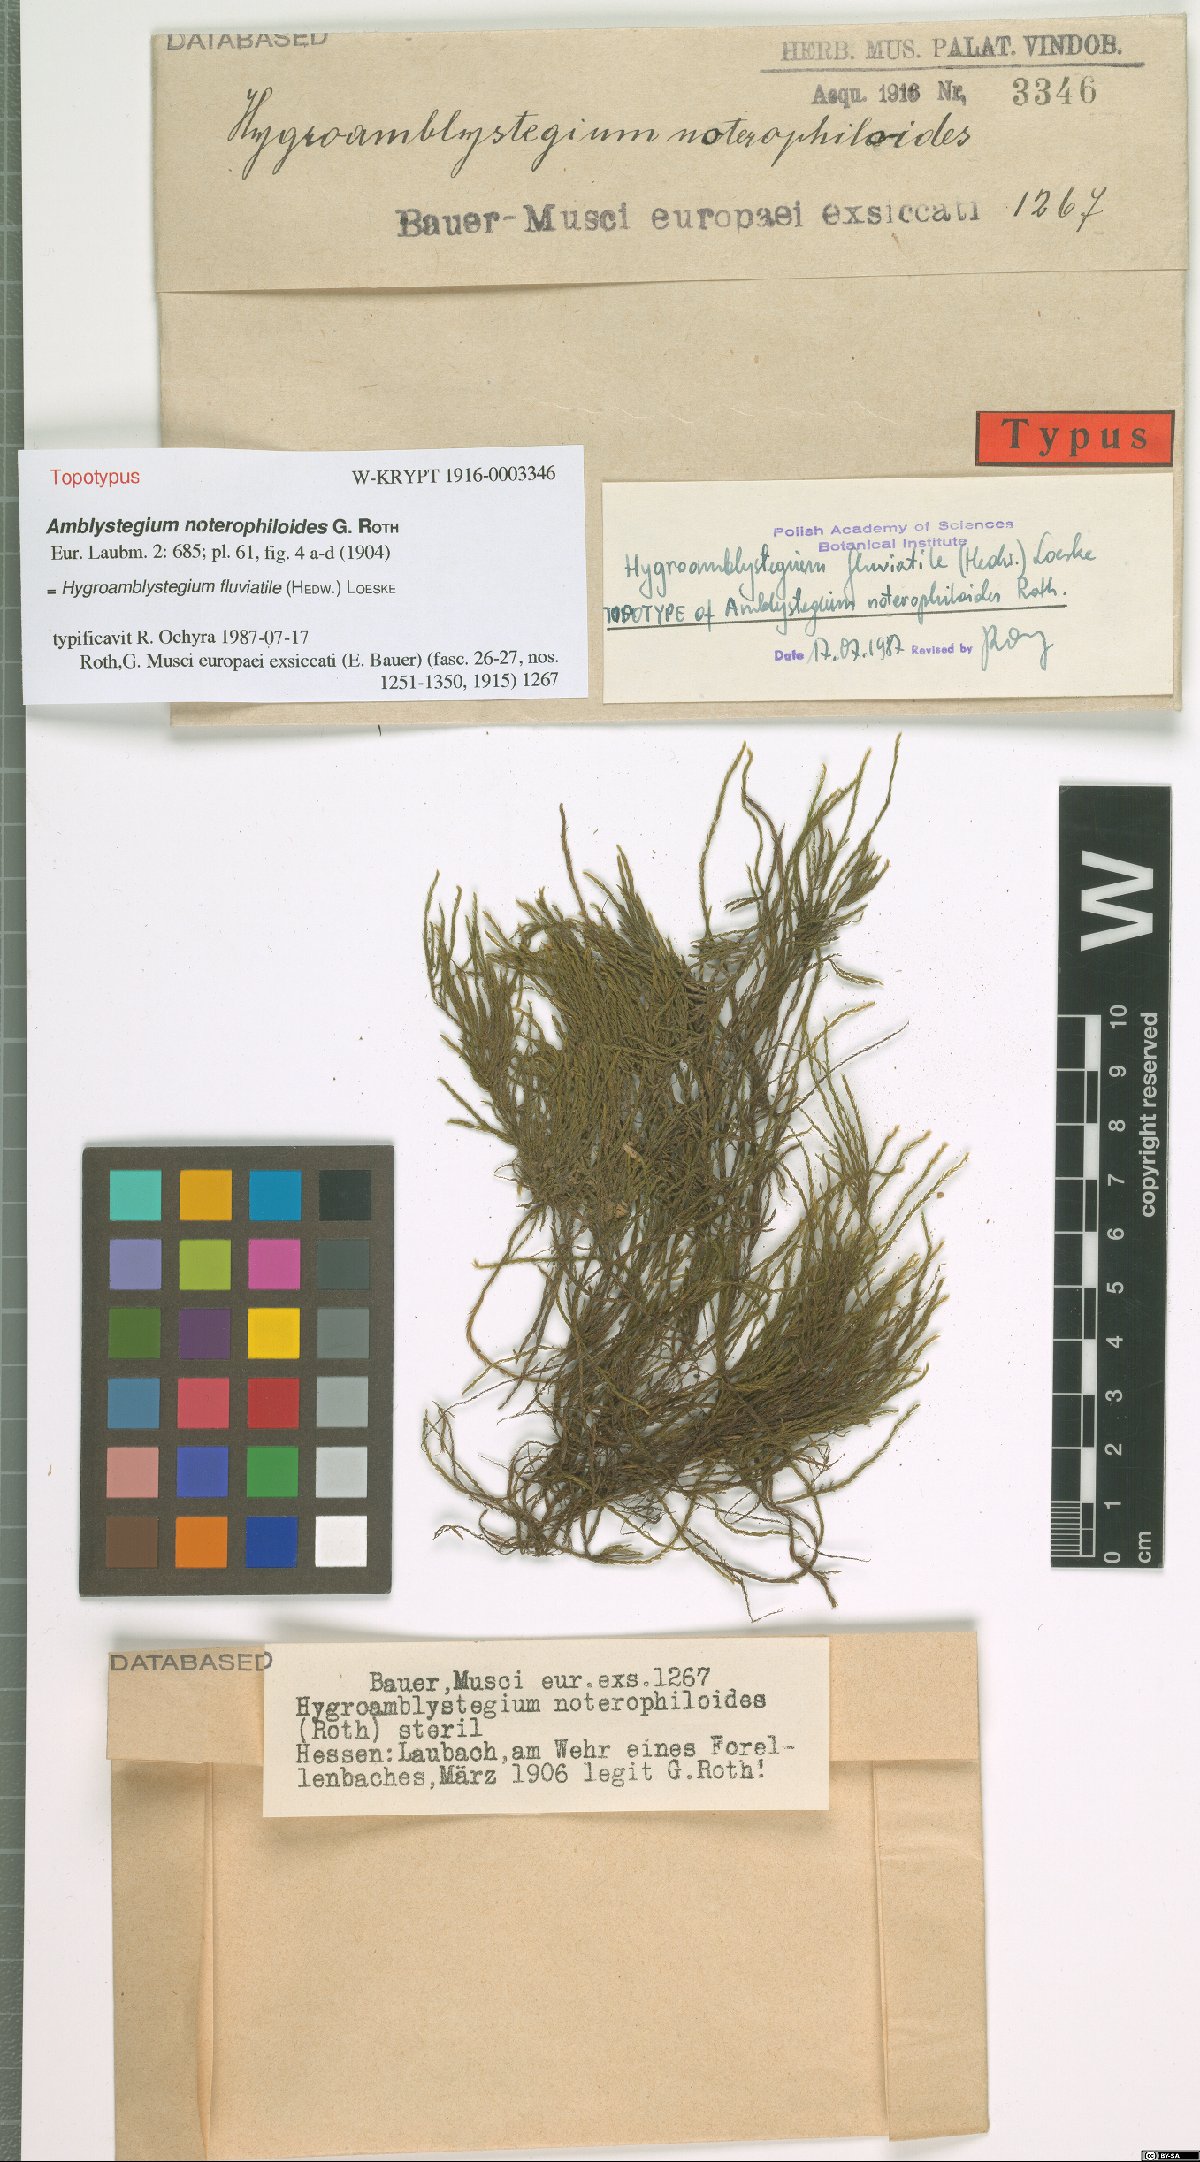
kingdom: Plantae
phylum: Bryophyta
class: Bryopsida
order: Hypnales
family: Amblystegiaceae
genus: Hygroamblystegium
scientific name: Hygroamblystegium fluviatile
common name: Brook-side feather-moss
